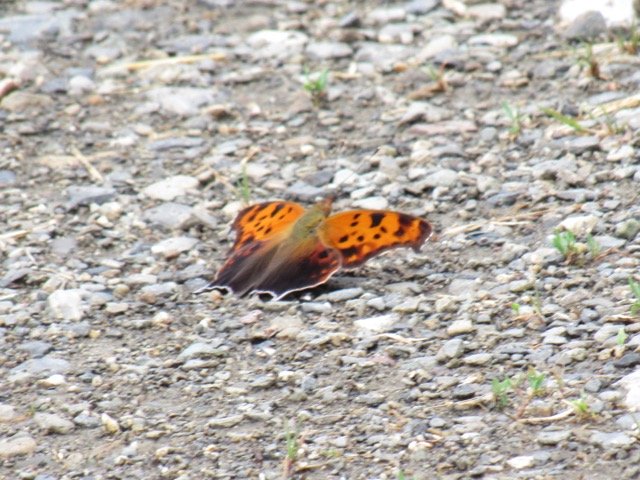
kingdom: Animalia
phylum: Arthropoda
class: Insecta
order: Lepidoptera
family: Nymphalidae
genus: Polygonia
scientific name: Polygonia interrogationis
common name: Question Mark
